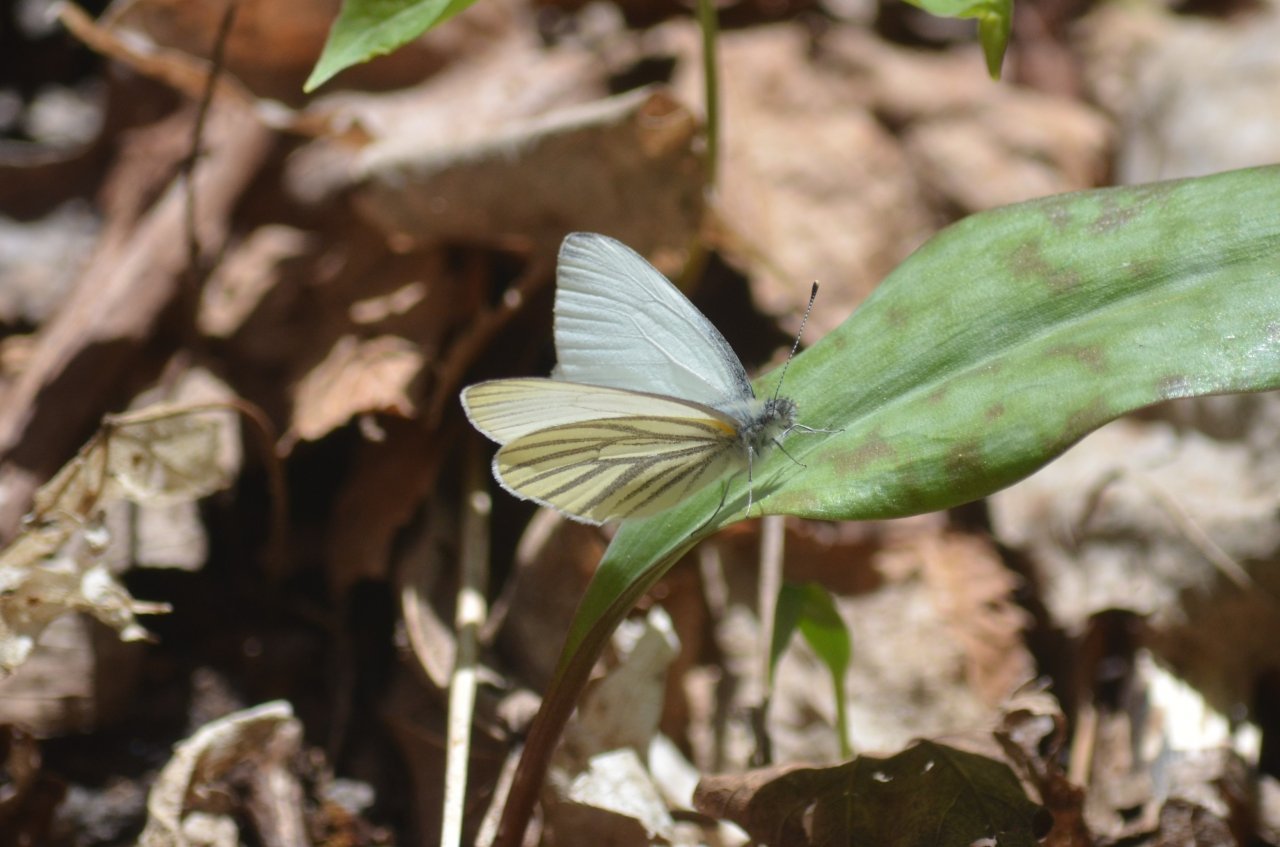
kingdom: Animalia
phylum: Arthropoda
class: Insecta
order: Lepidoptera
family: Pieridae
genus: Pieris
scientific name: Pieris oleracea
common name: Mustard White
